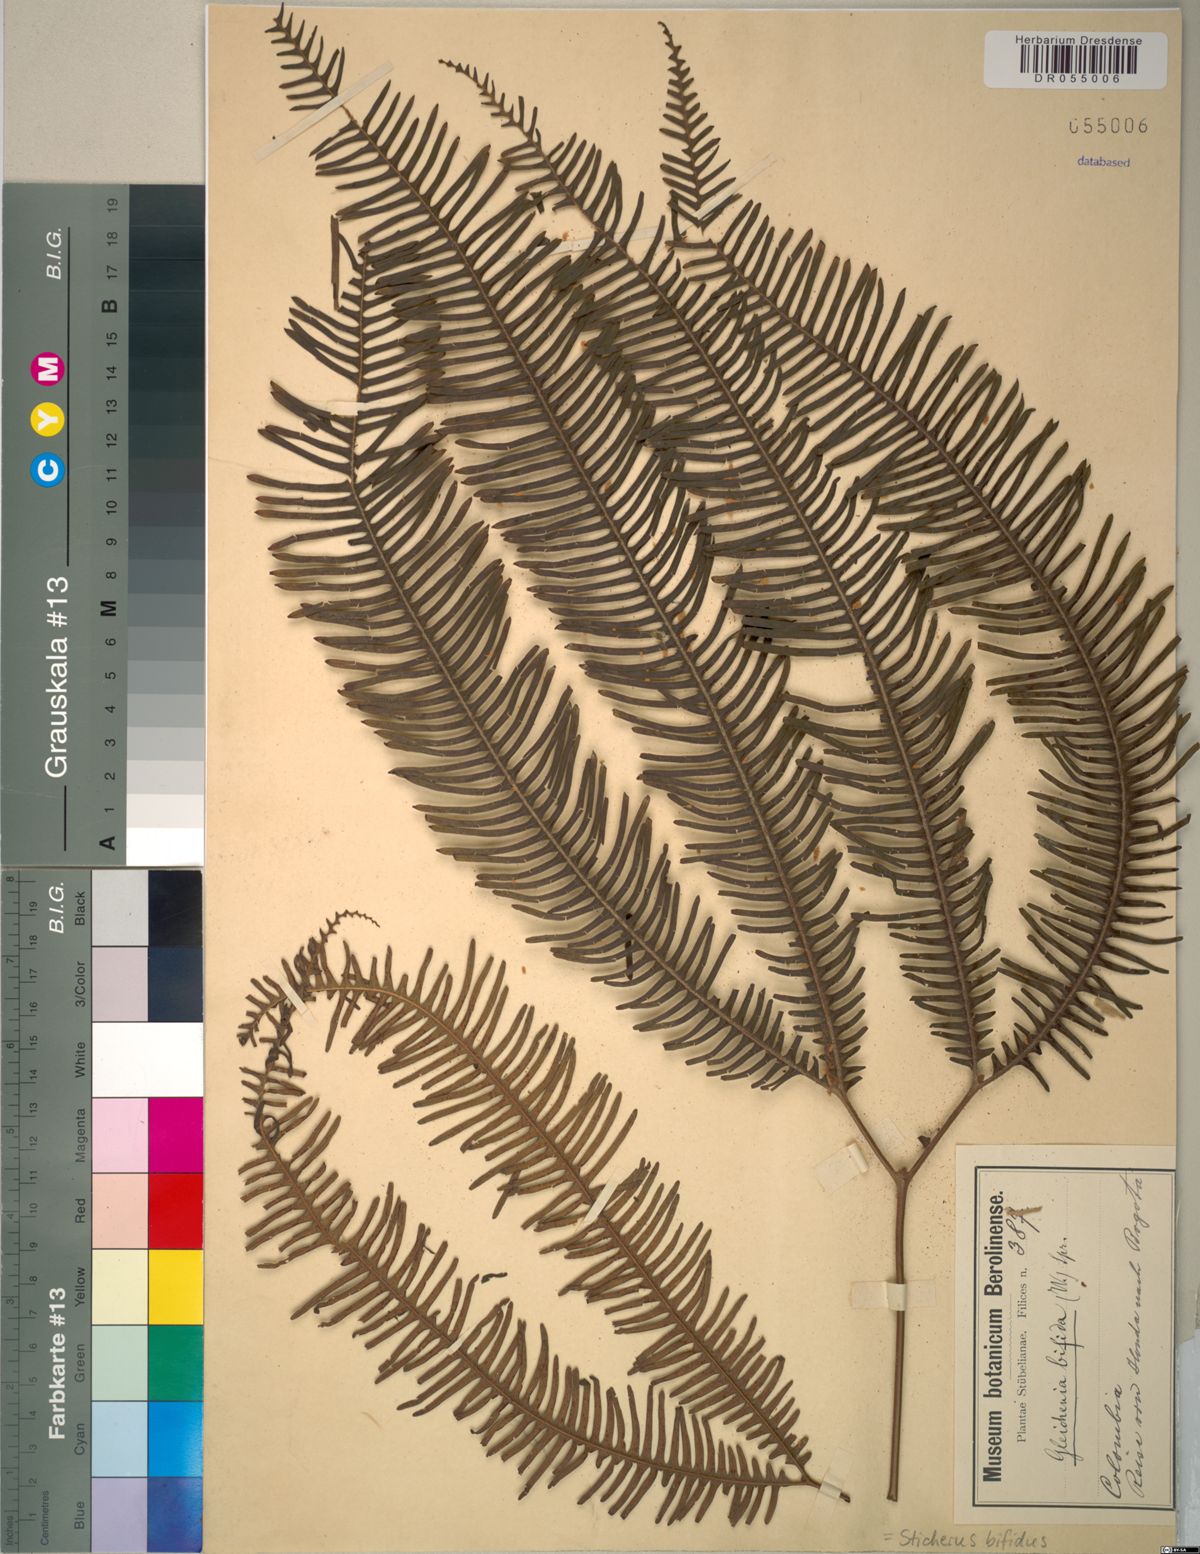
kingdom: Plantae
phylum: Tracheophyta
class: Polypodiopsida
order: Gleicheniales
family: Gleicheniaceae
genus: Sticherus
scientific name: Sticherus bifidus
